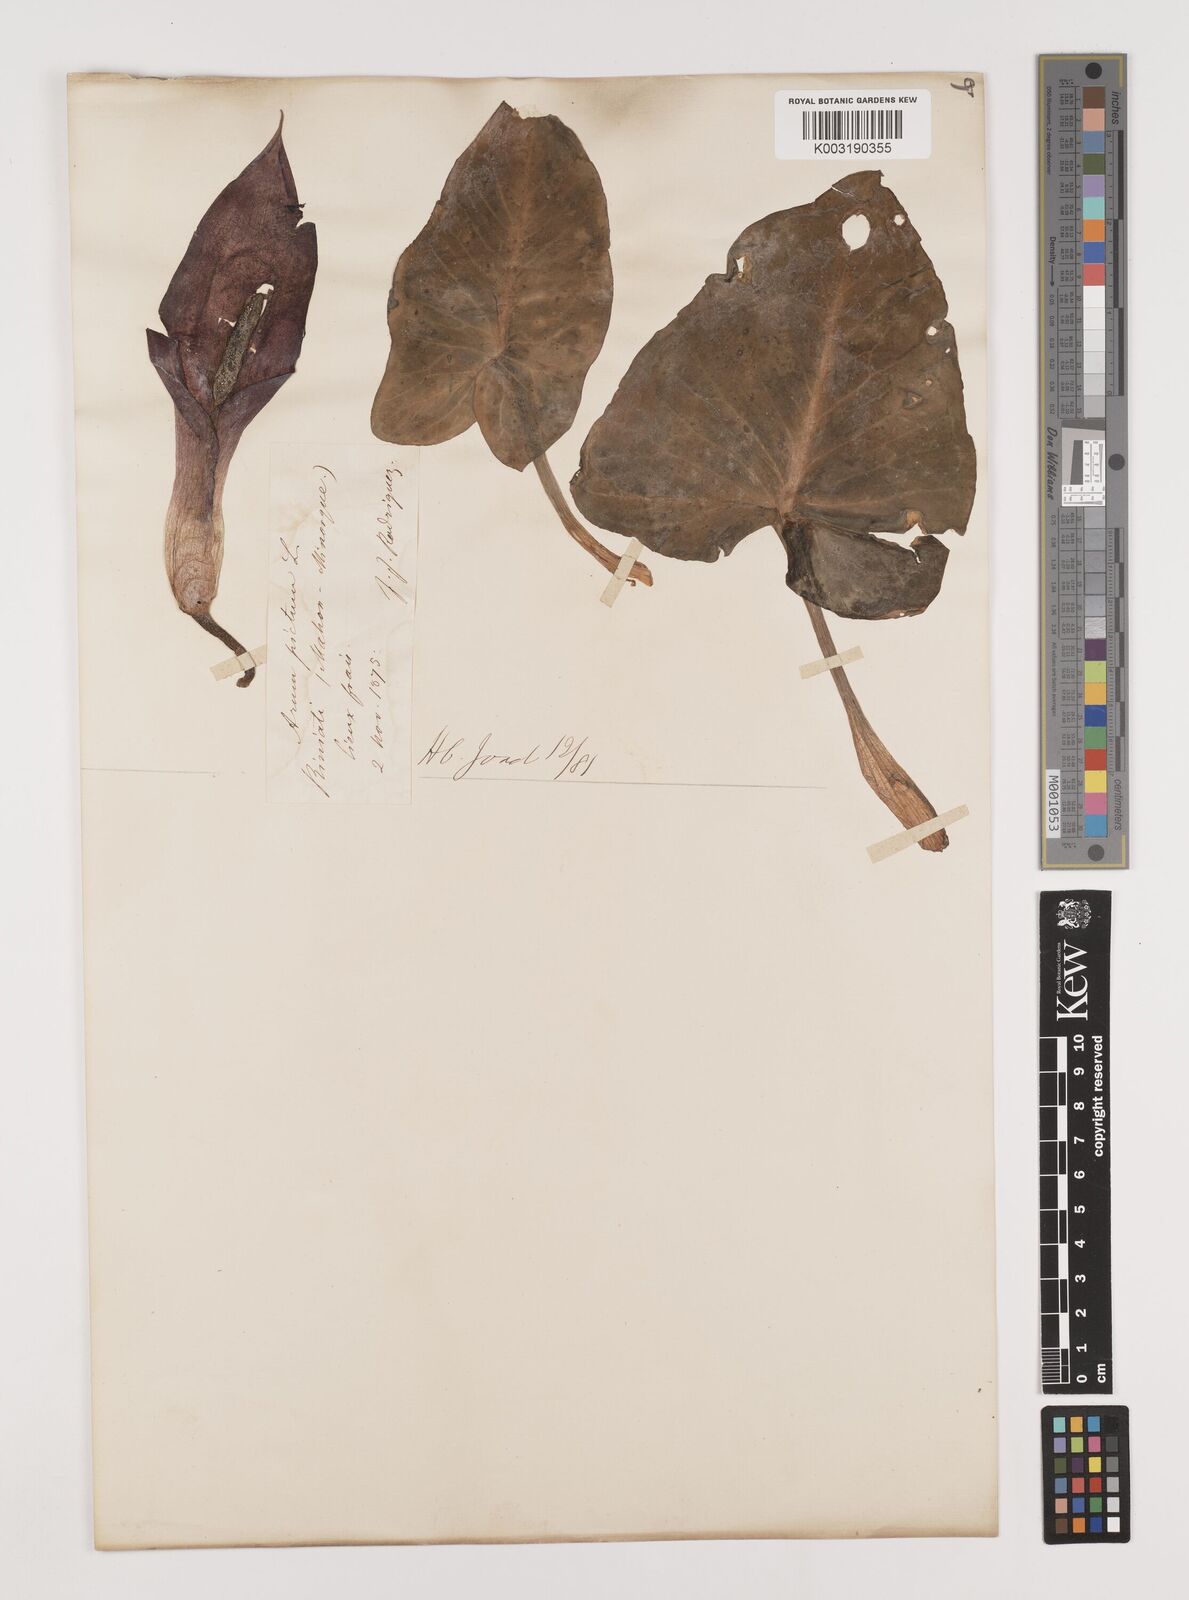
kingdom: Plantae
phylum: Tracheophyta
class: Liliopsida
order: Alismatales
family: Araceae
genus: Arum
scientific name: Arum pictum
